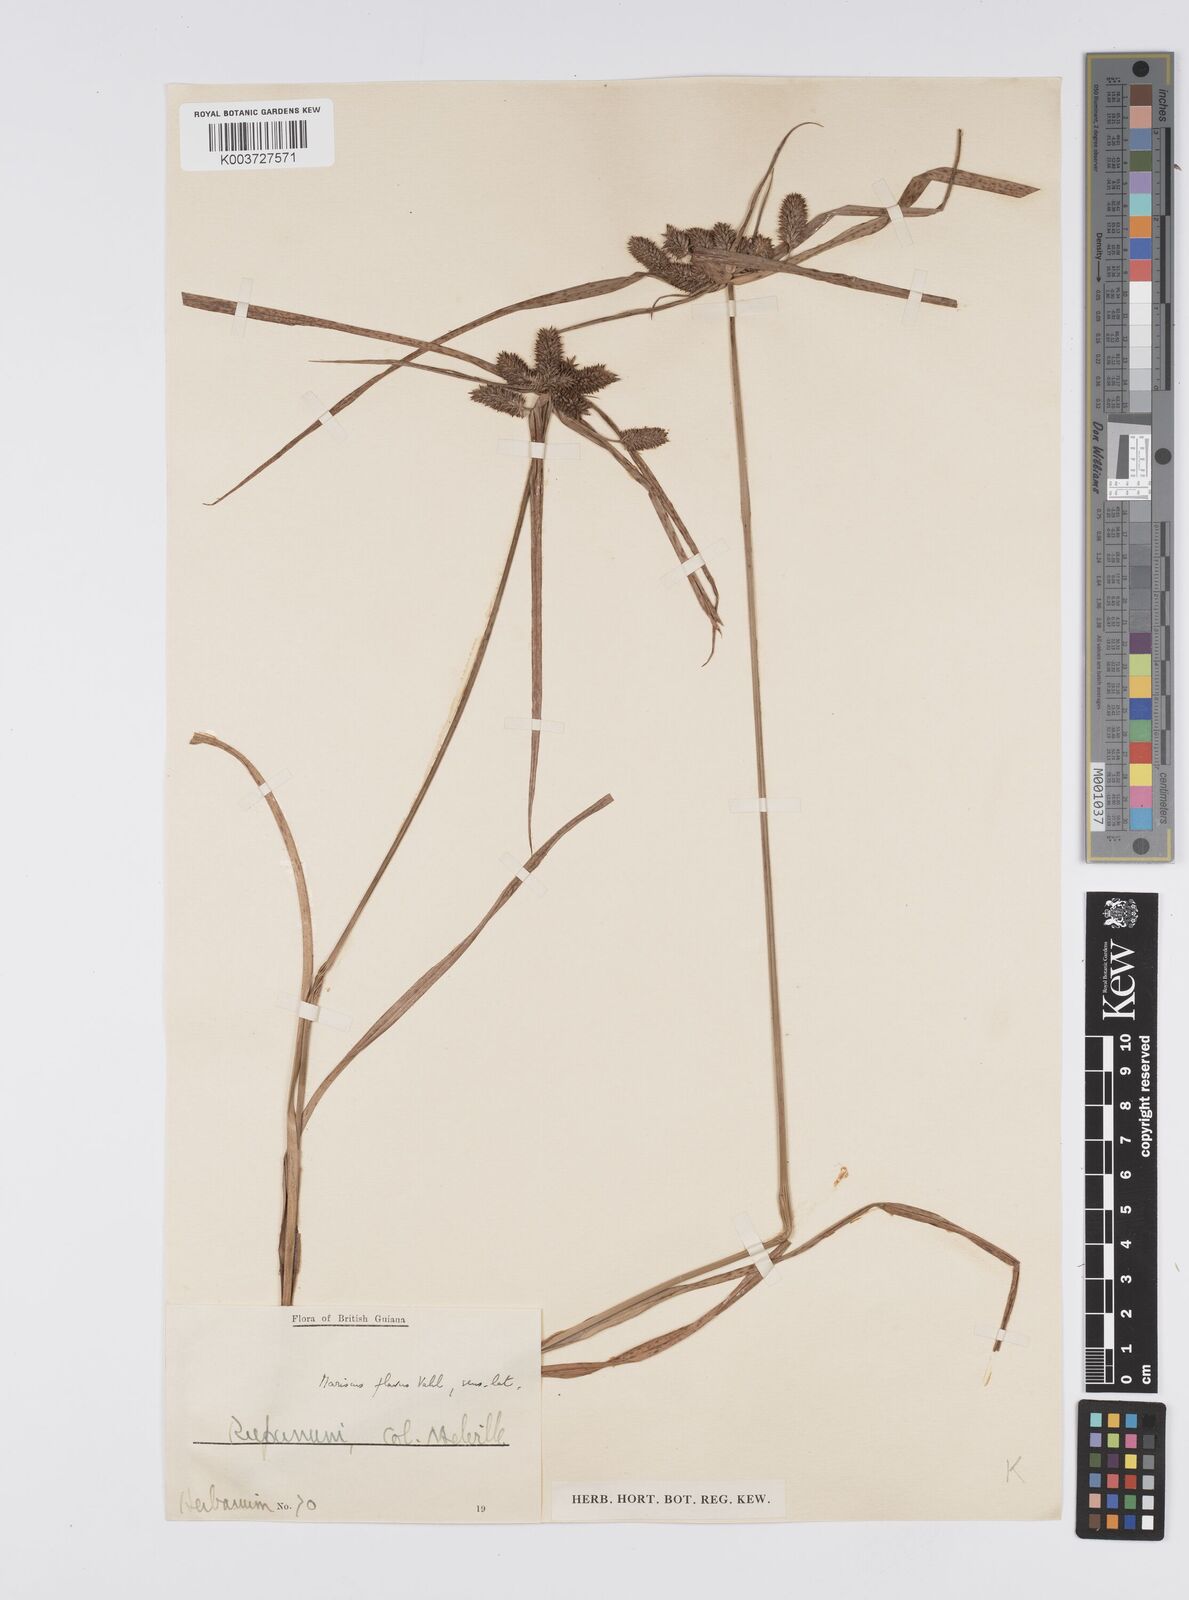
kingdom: Plantae
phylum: Tracheophyta
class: Liliopsida
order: Poales
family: Cyperaceae
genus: Cyperus
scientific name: Cyperus aggregatus
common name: Inflatedscale flatsedge
